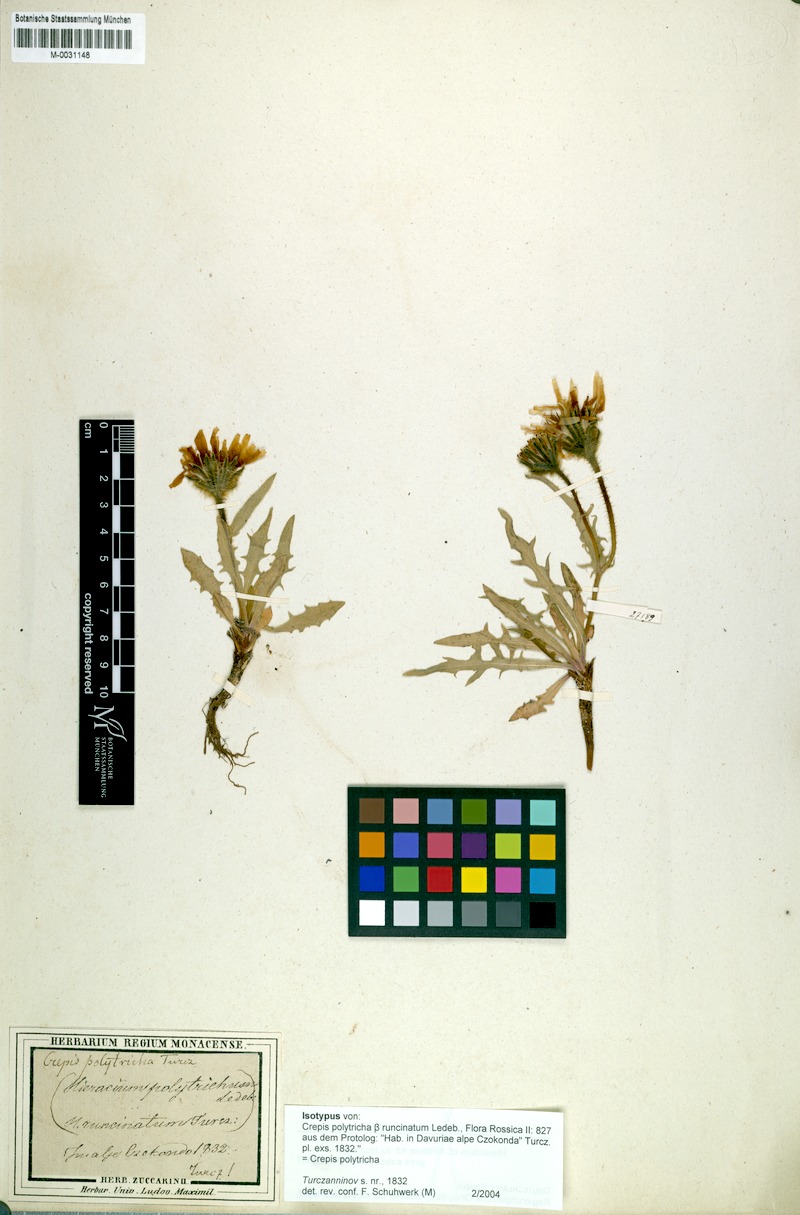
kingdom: Plantae
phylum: Tracheophyta
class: Magnoliopsida
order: Asterales
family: Asteraceae
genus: Crepis
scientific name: Crepis chrysantha
